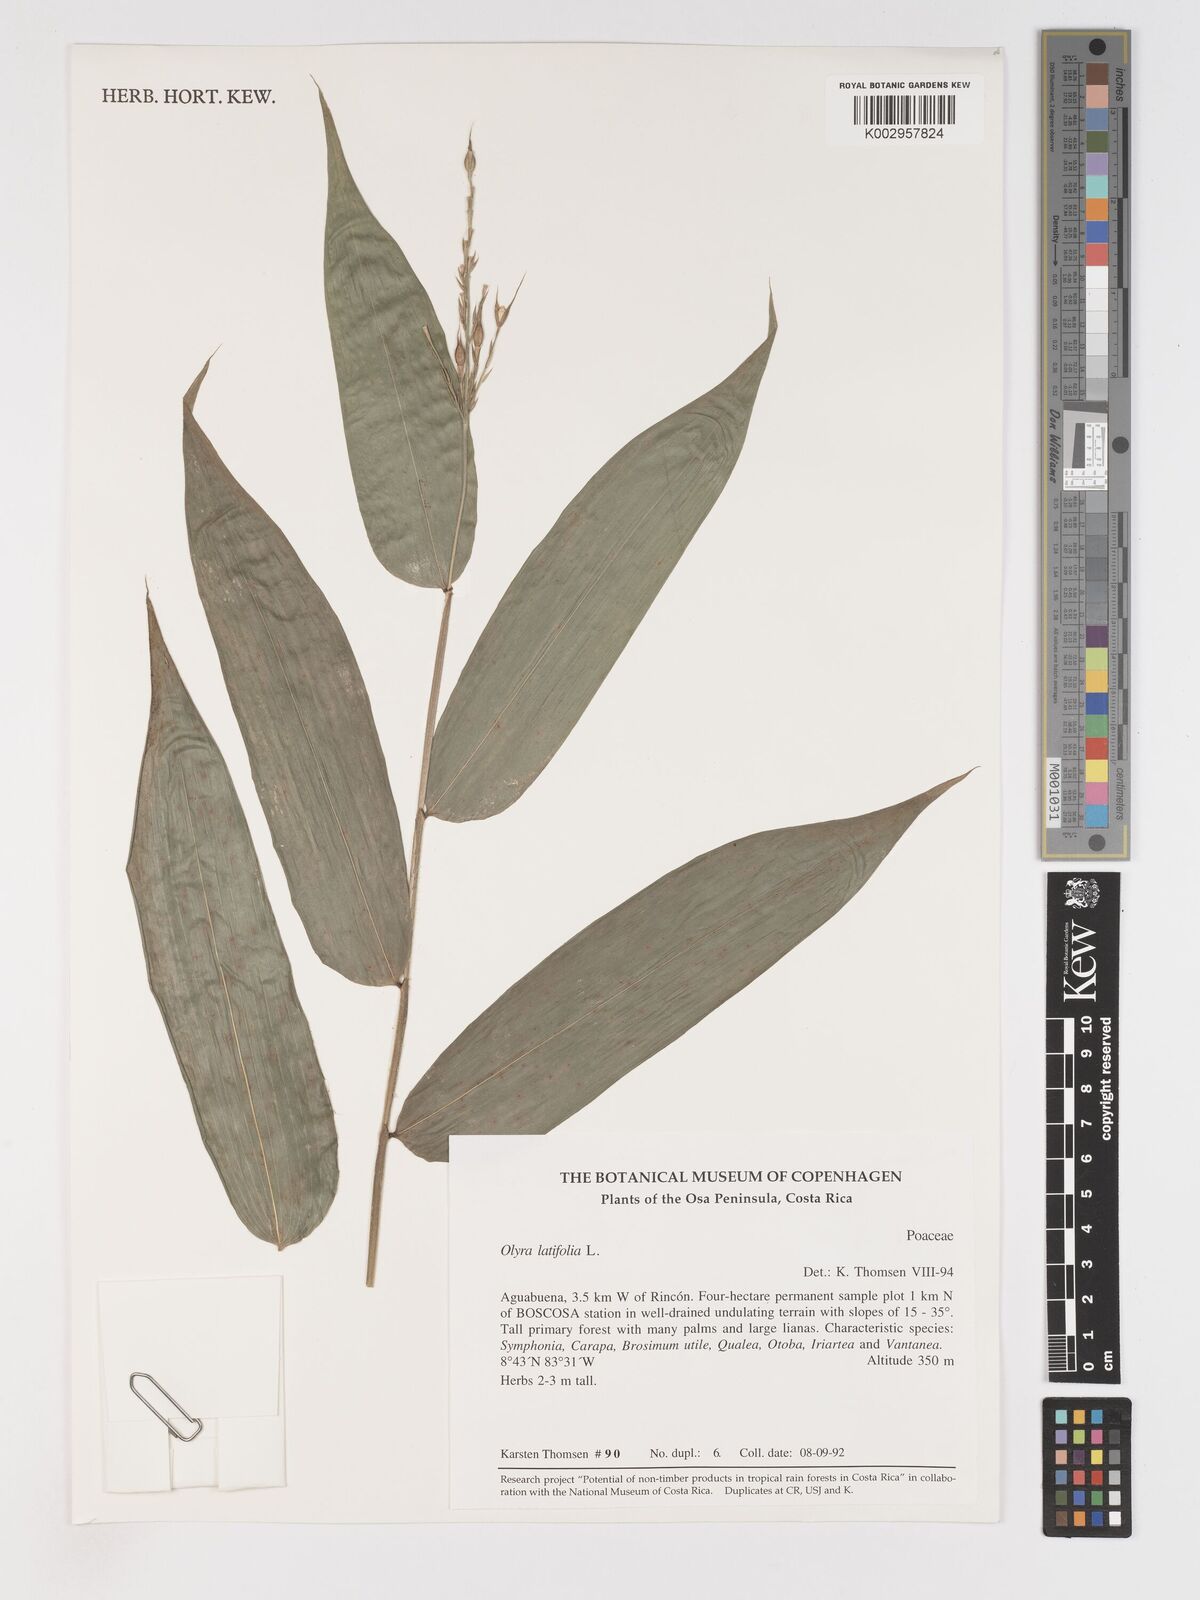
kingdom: Plantae
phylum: Tracheophyta
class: Liliopsida
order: Poales
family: Poaceae
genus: Olyra
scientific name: Olyra latifolia
